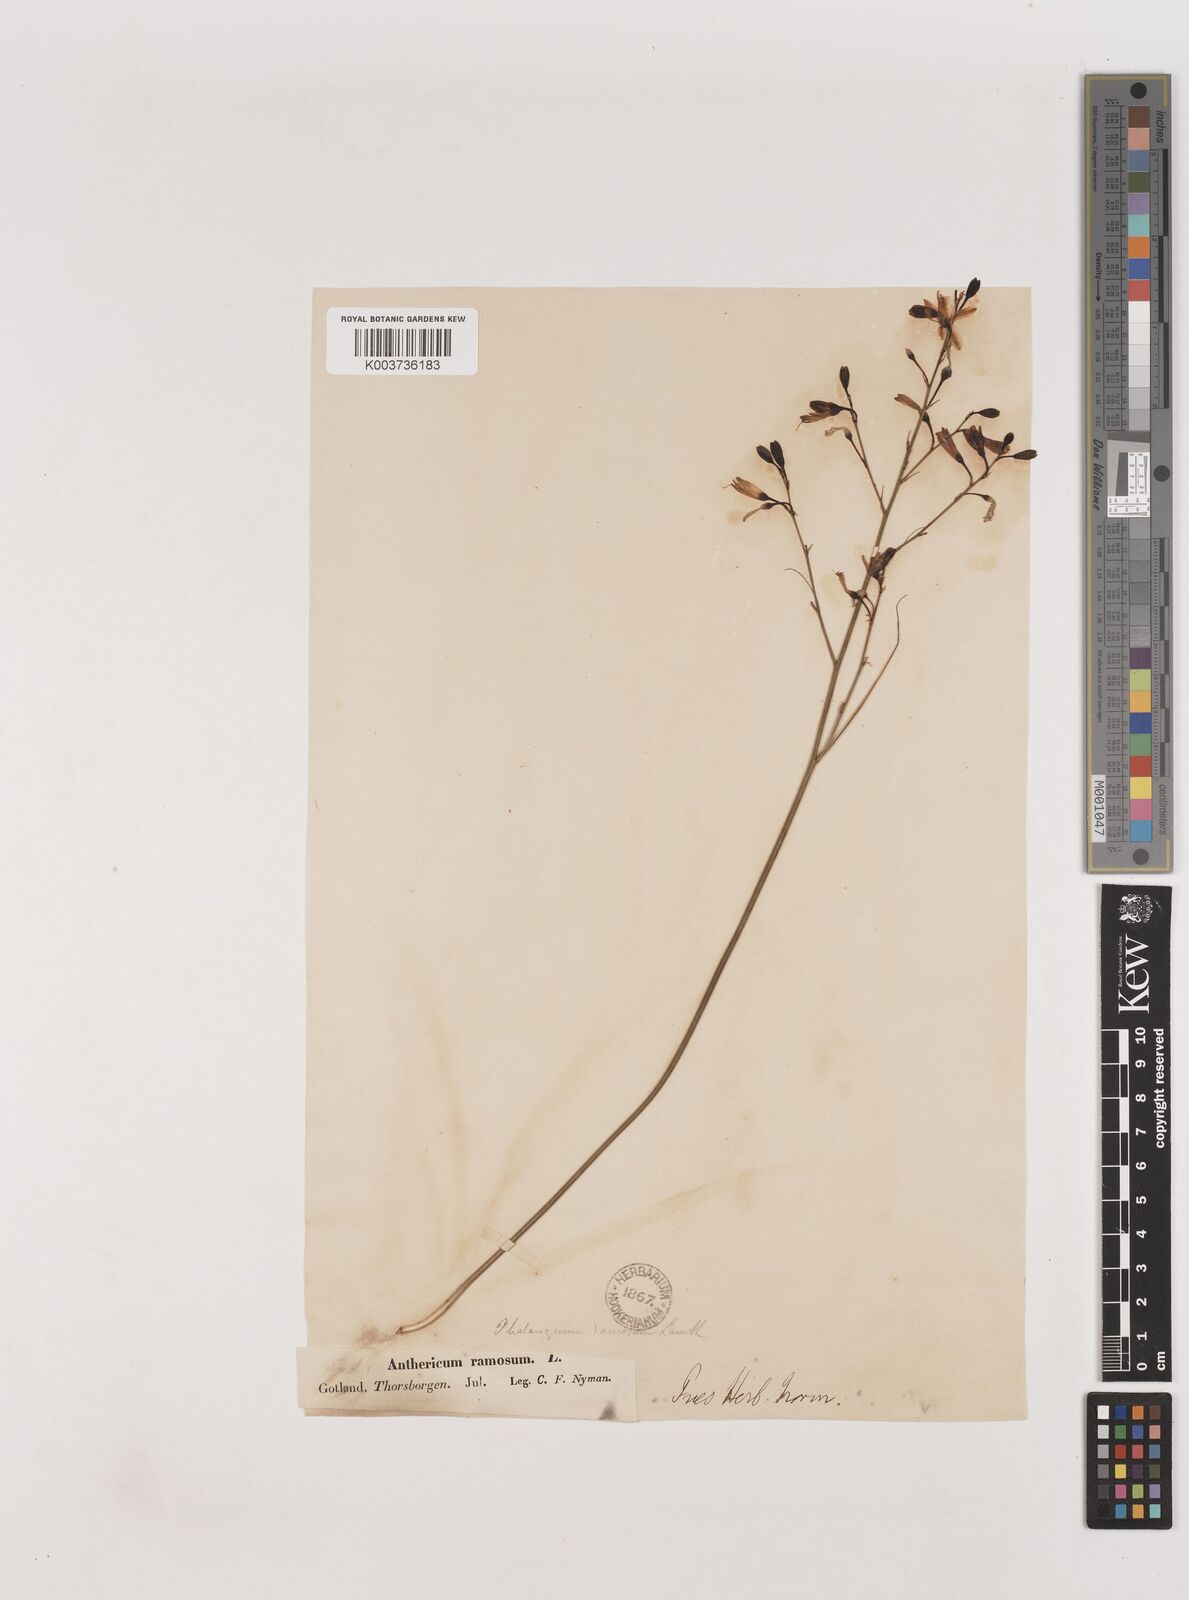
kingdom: Plantae
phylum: Tracheophyta
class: Liliopsida
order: Asparagales
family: Asparagaceae
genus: Anthericum
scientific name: Anthericum ramosum
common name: Branched st. bernard's-lily
